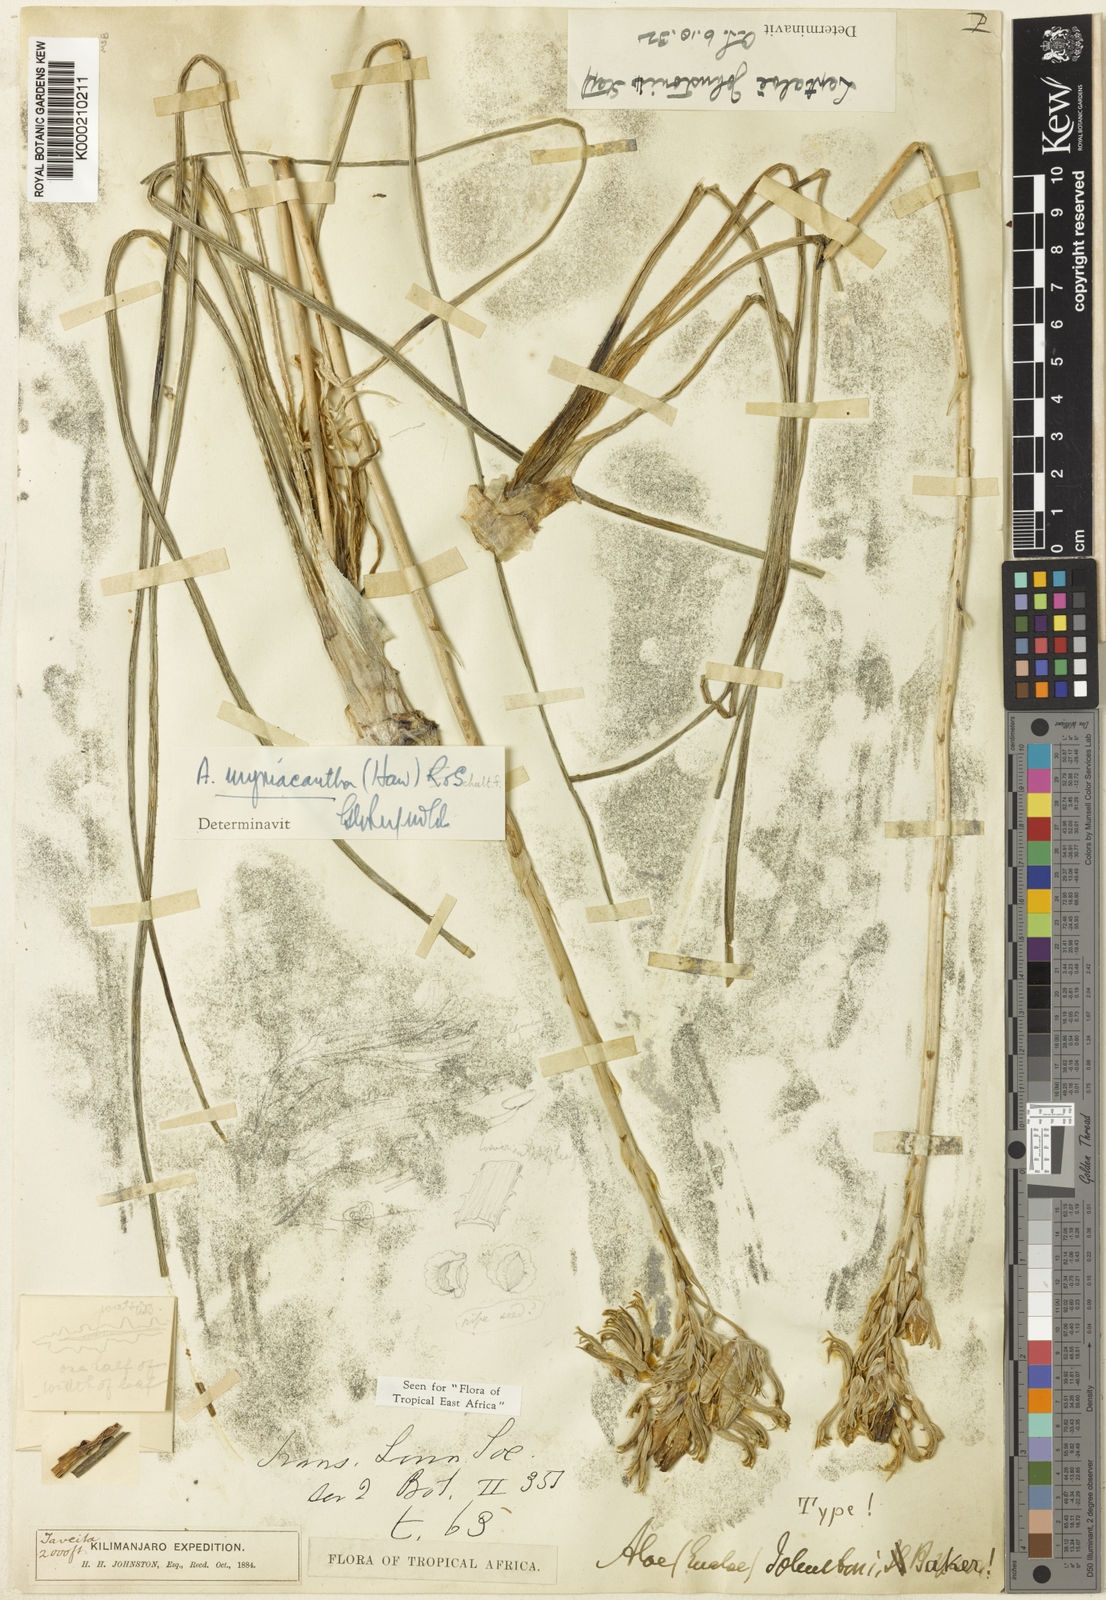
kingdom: Plantae
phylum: Tracheophyta
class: Liliopsida
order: Asparagales
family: Asphodelaceae
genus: Aloe
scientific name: Aloe
